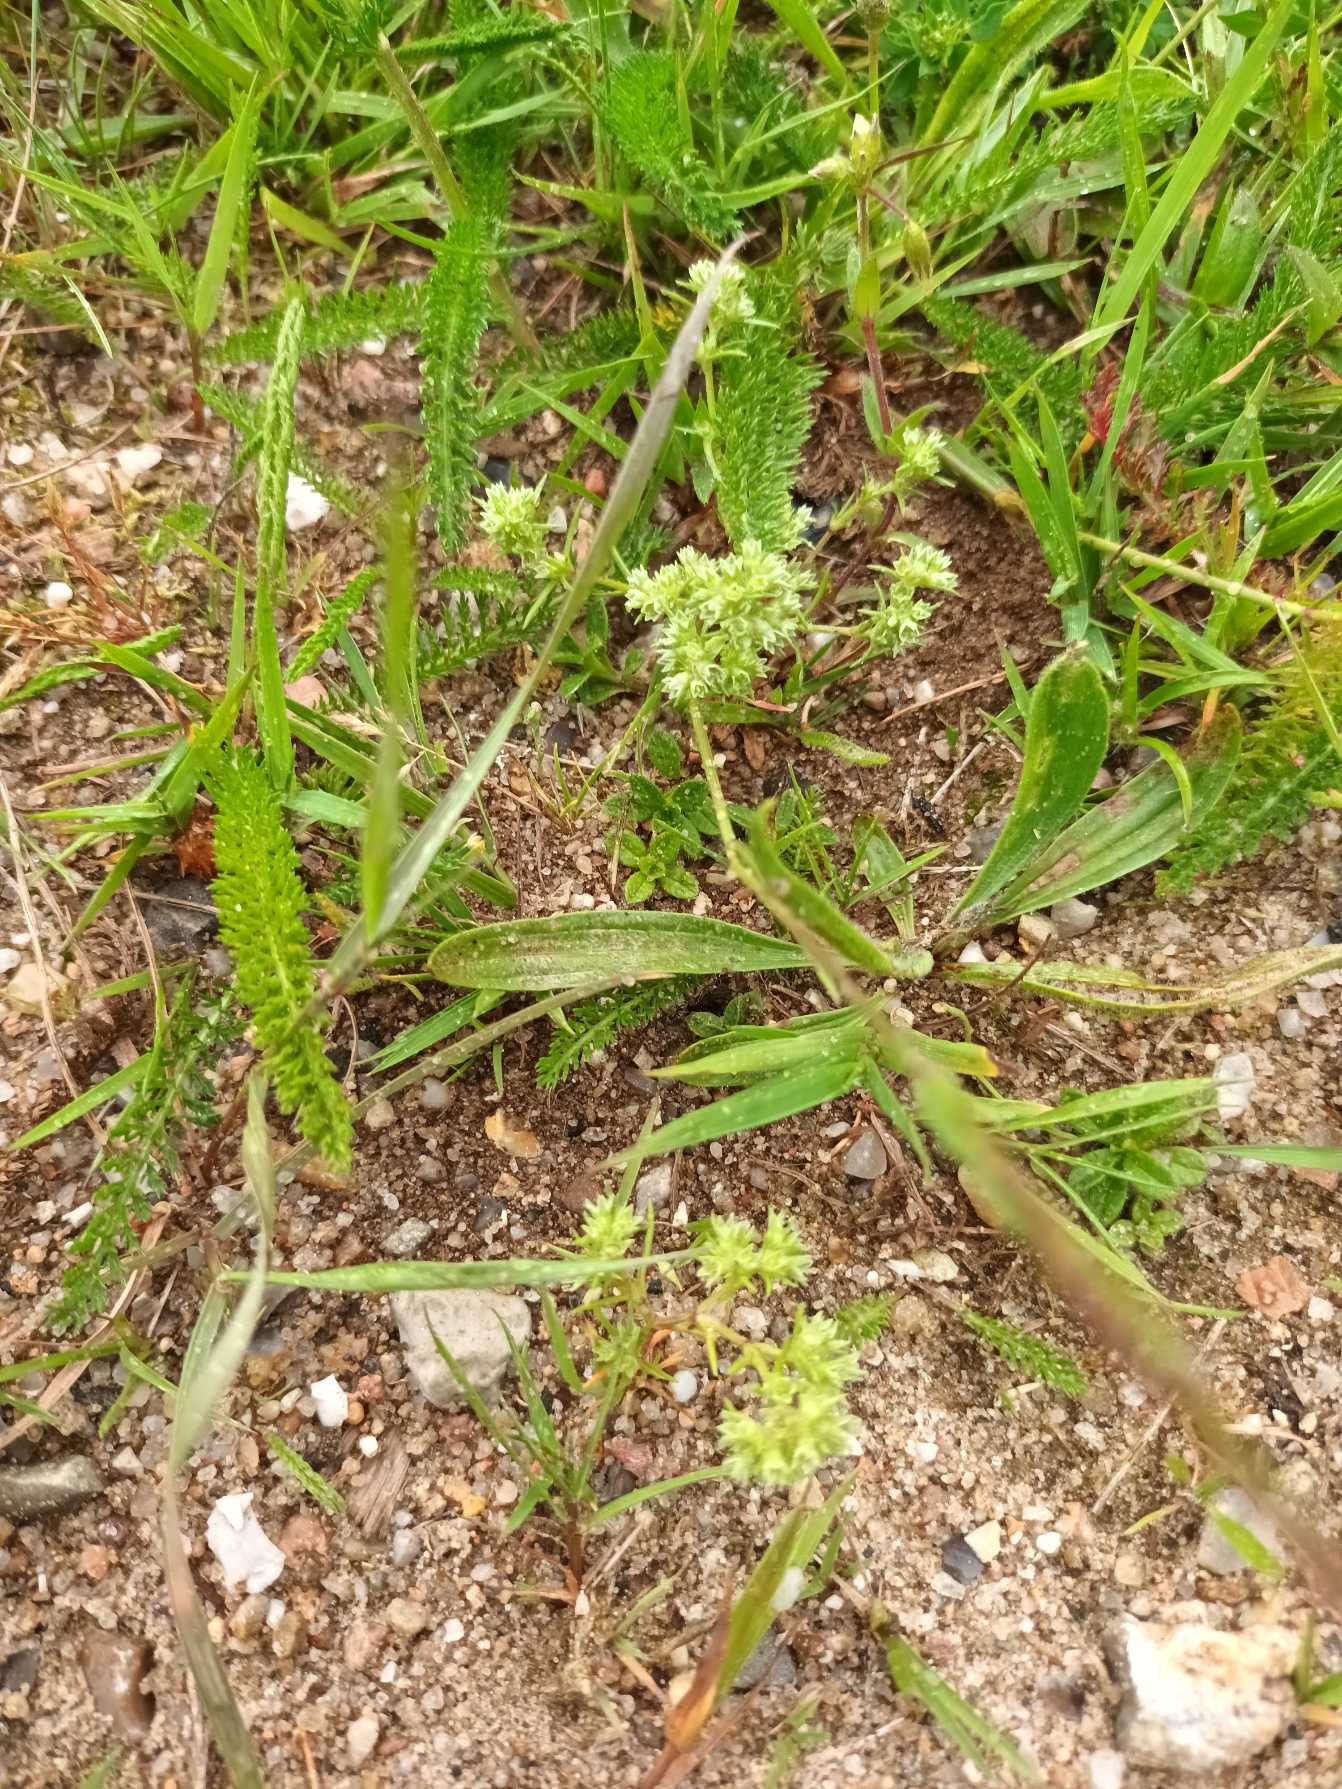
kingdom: Plantae
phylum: Tracheophyta
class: Magnoliopsida
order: Caryophyllales
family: Caryophyllaceae
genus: Scleranthus
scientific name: Scleranthus annuus
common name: Enårig knavel
